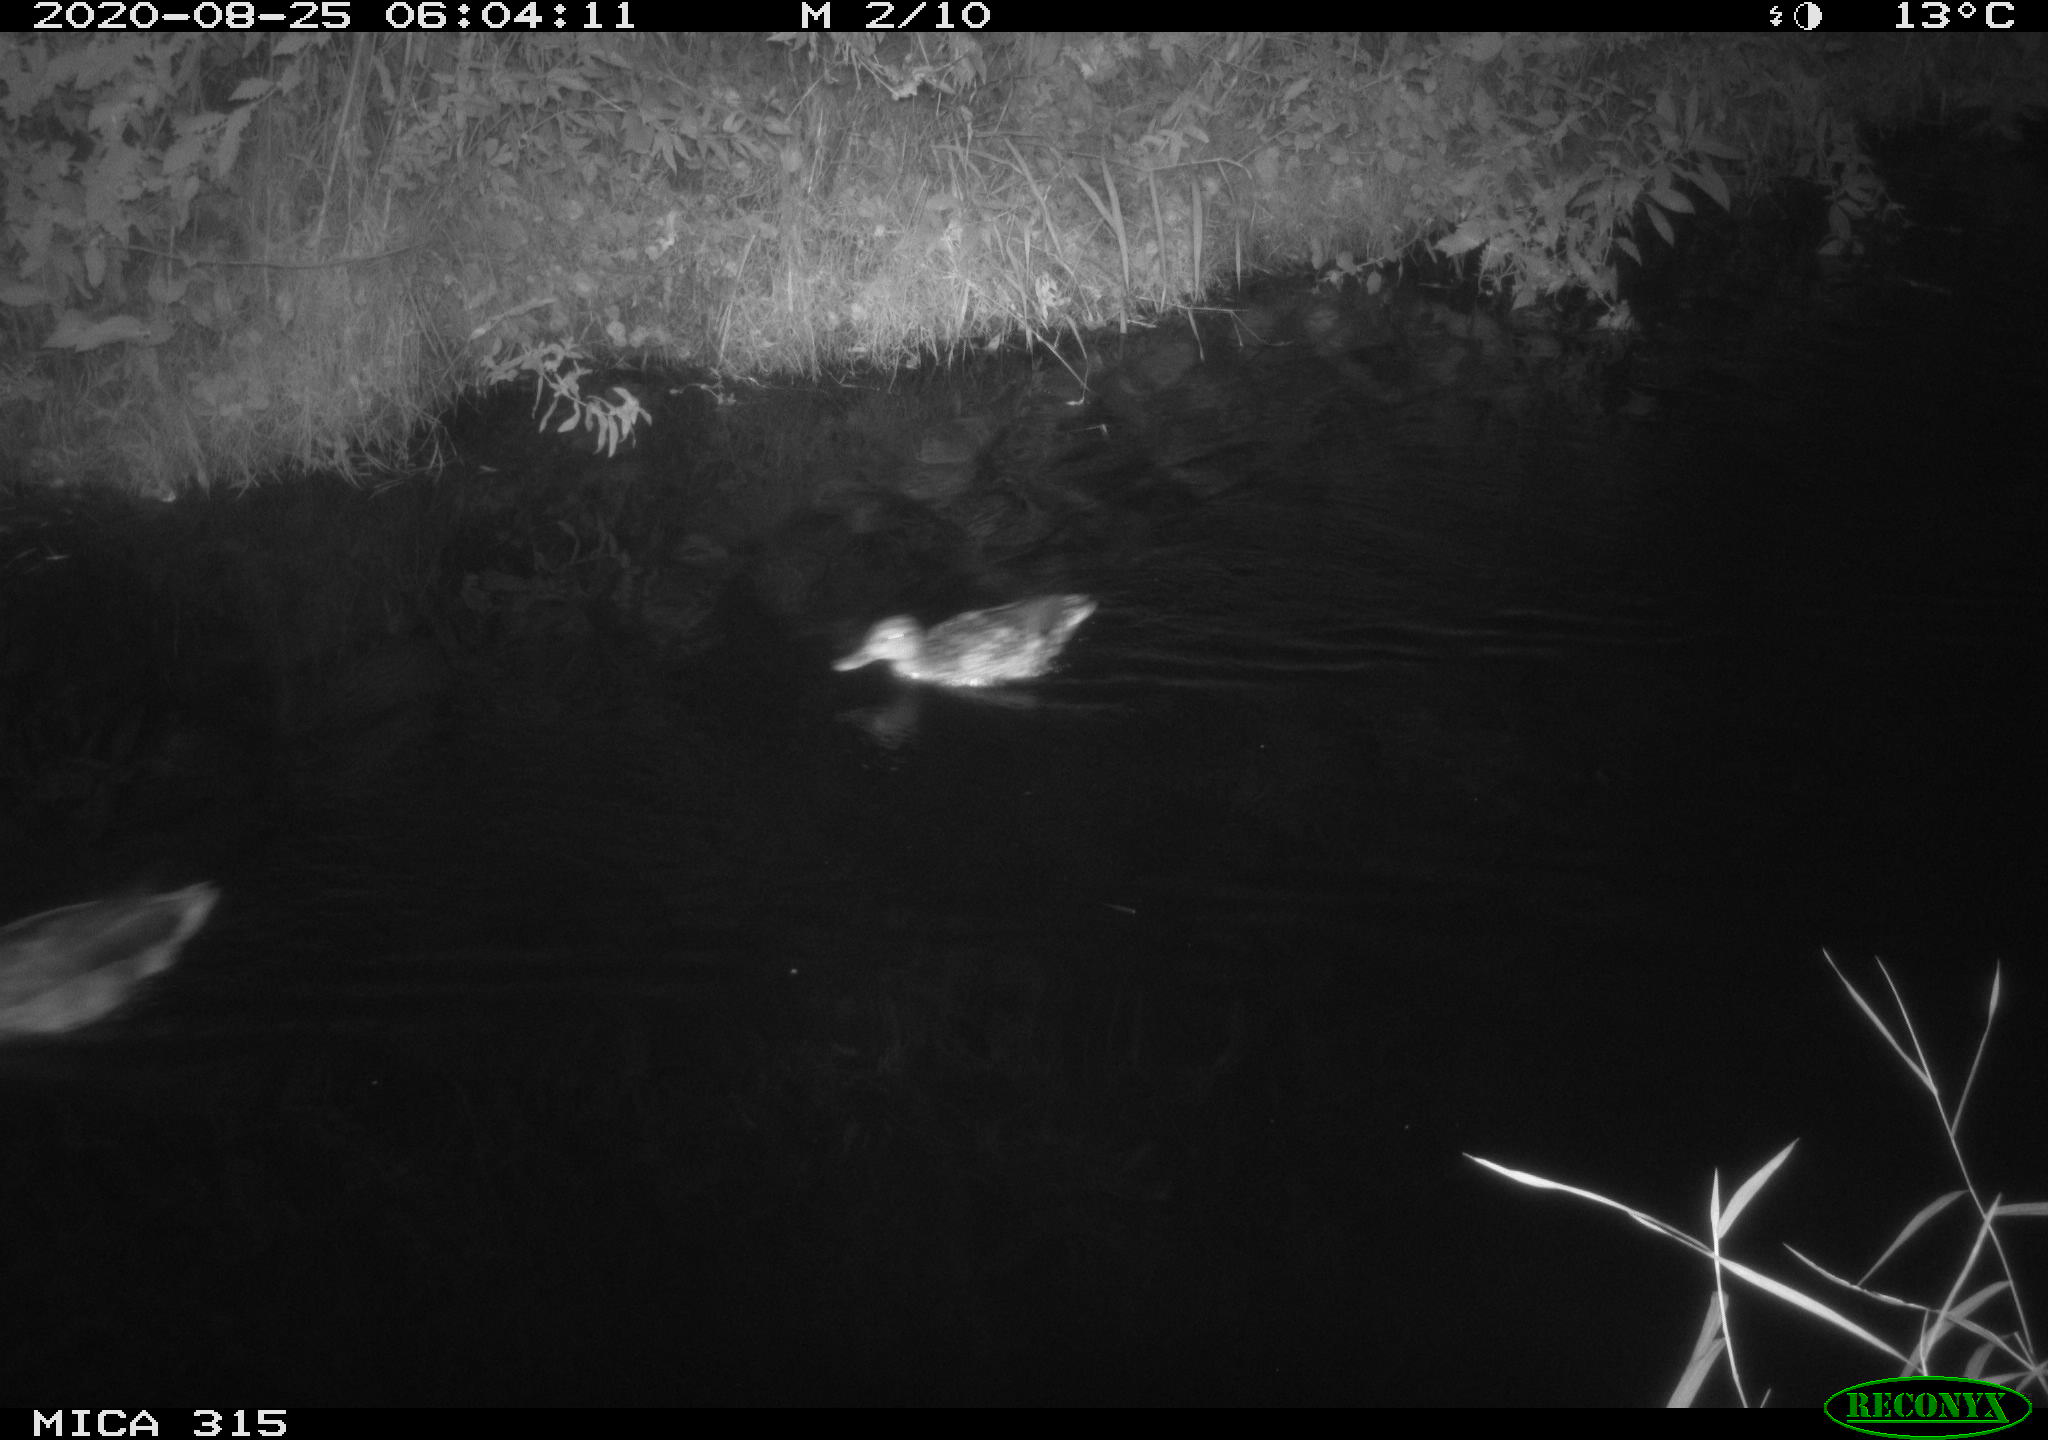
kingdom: Animalia
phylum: Chordata
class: Aves
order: Anseriformes
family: Anatidae
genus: Anas
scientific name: Anas platyrhynchos
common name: Mallard
